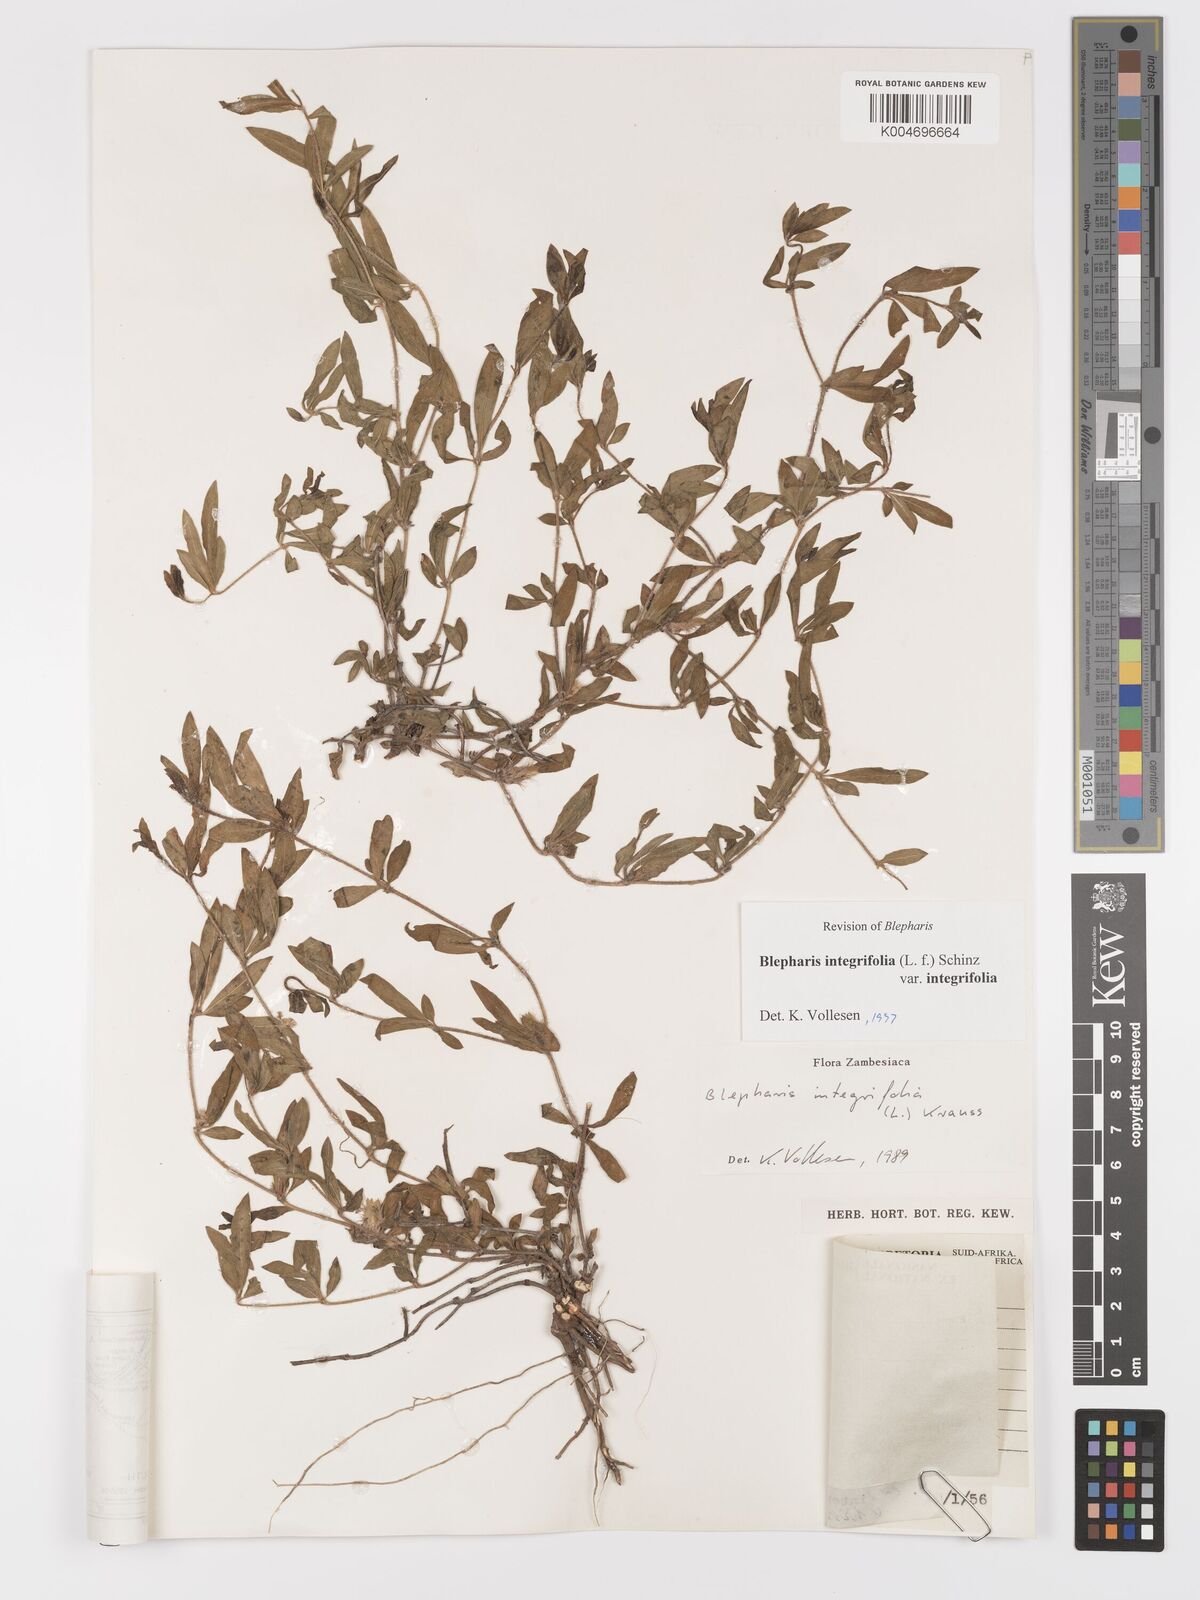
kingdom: Plantae
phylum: Tracheophyta
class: Magnoliopsida
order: Lamiales
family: Acanthaceae
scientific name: Acanthaceae
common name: Acanthaceae
